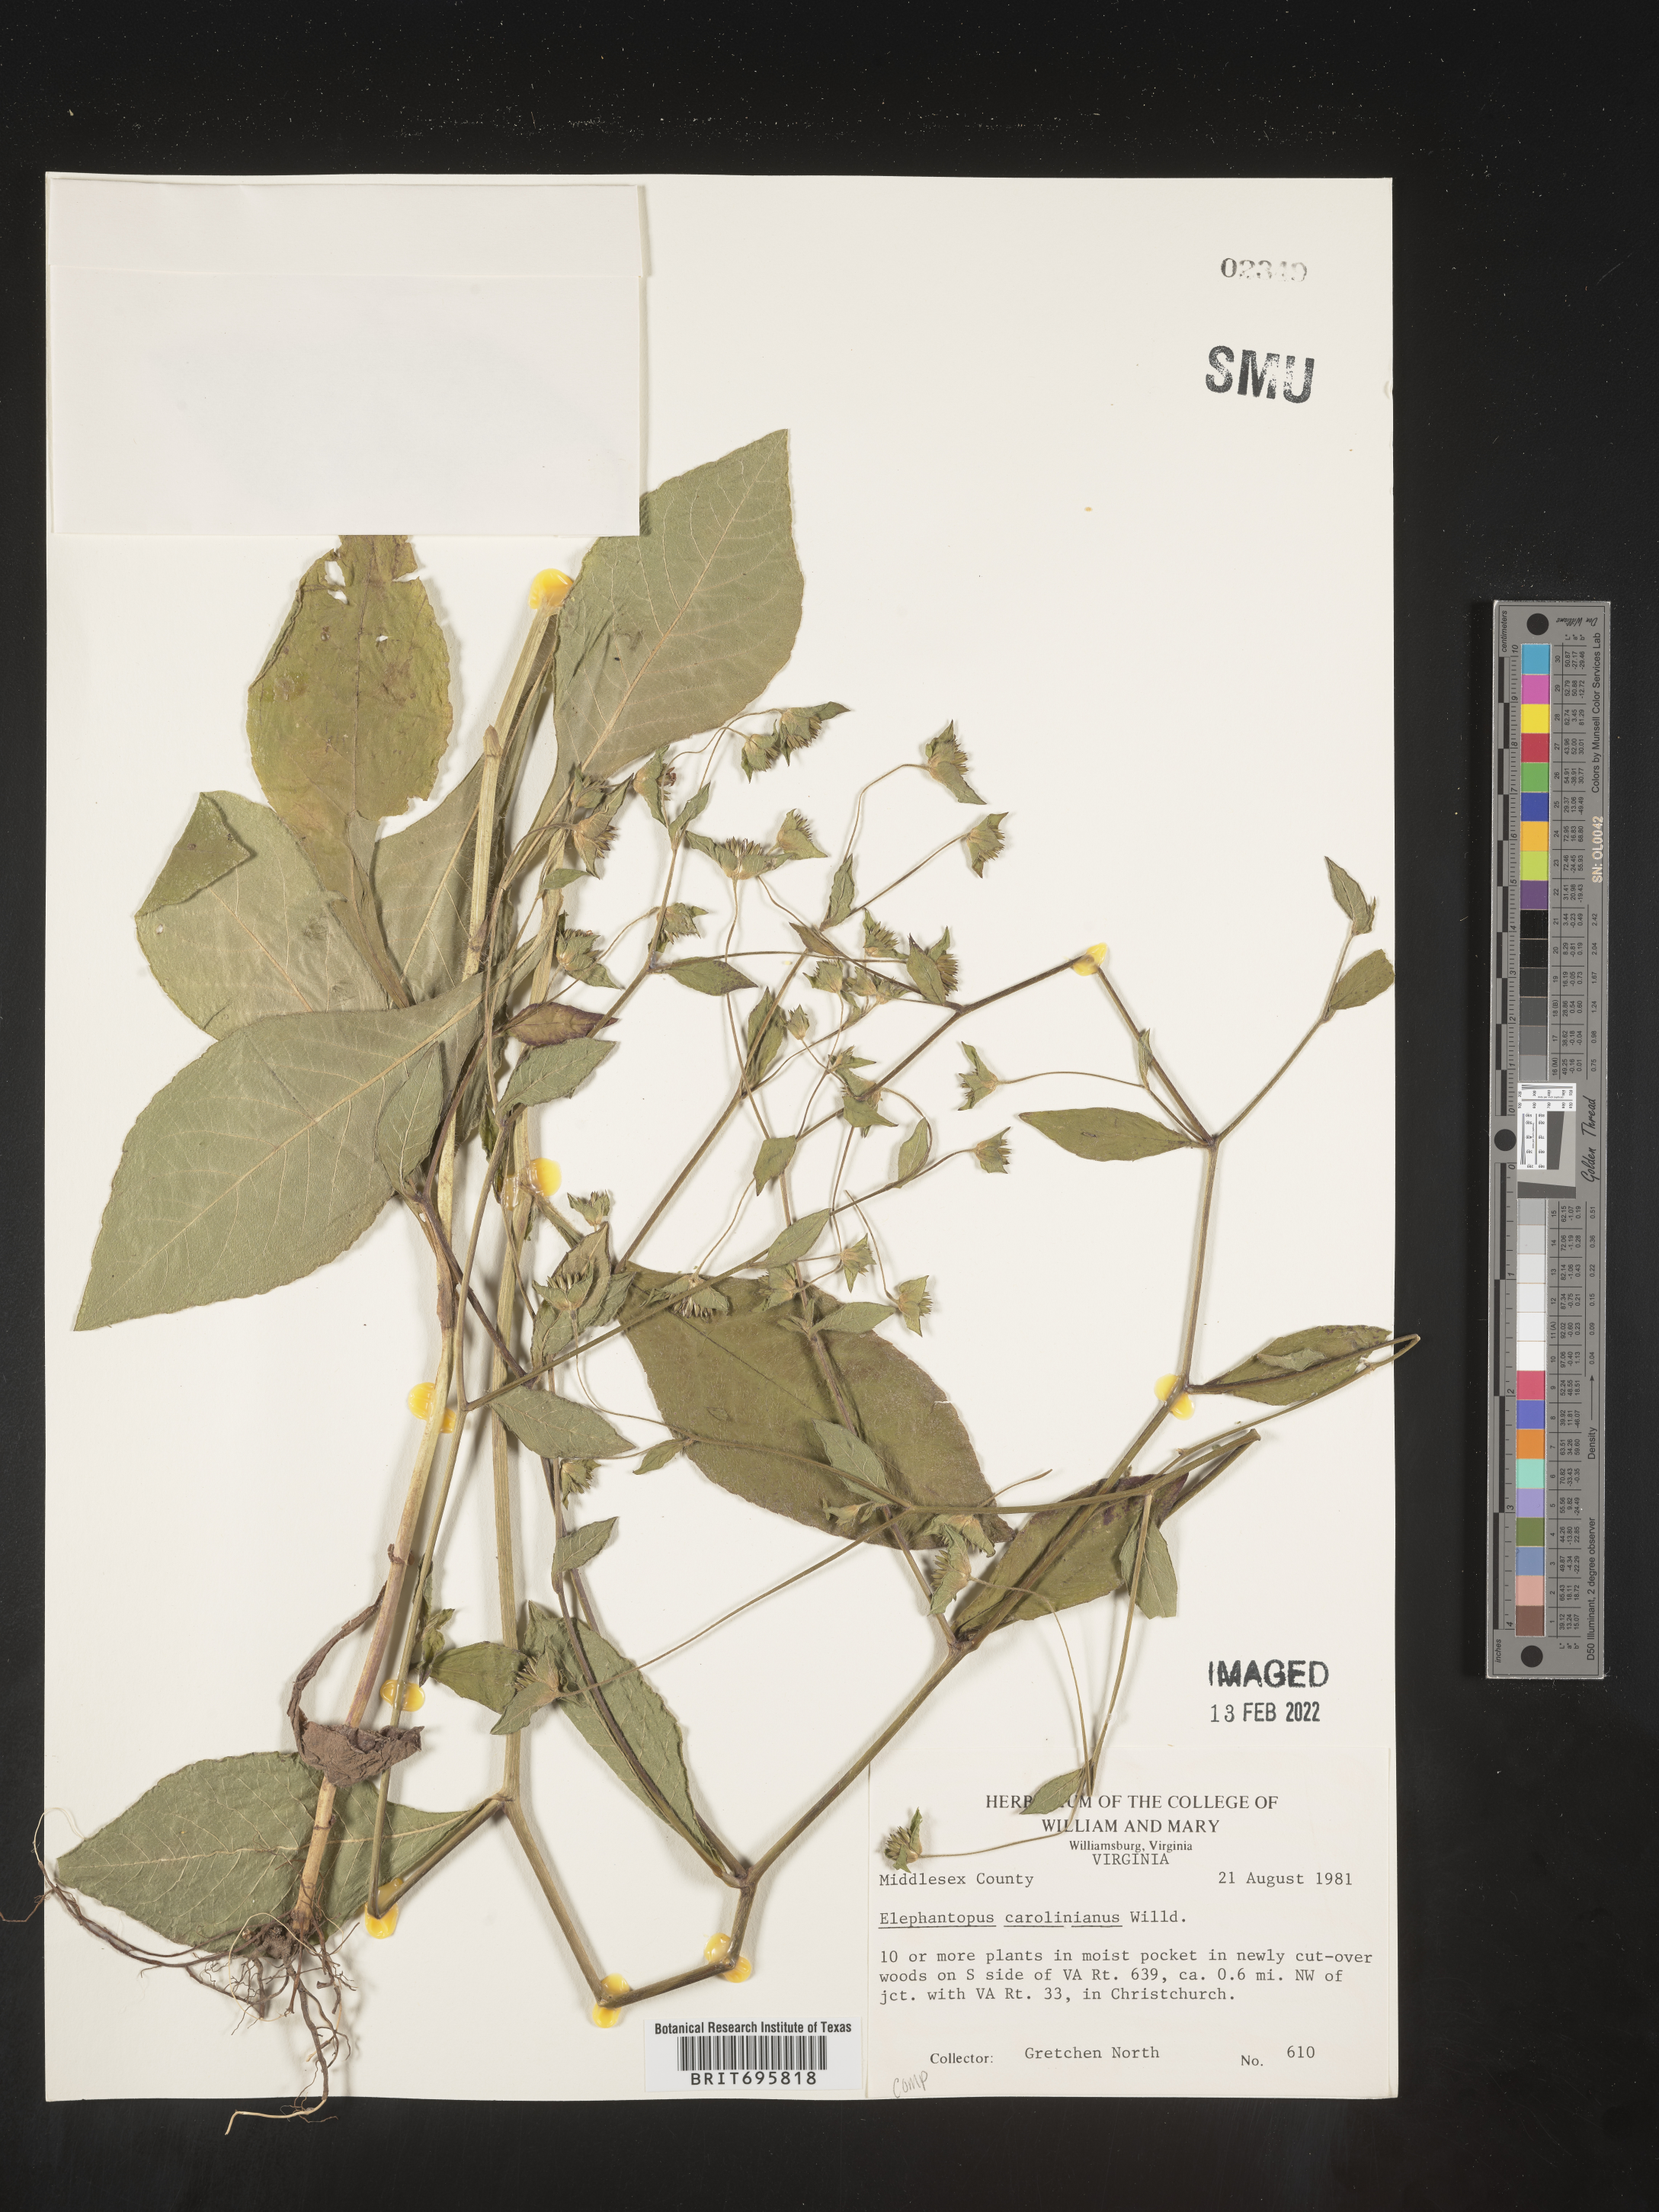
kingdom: Plantae
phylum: Tracheophyta
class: Magnoliopsida
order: Asterales
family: Asteraceae
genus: Elephantopus
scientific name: Elephantopus carolinianus
